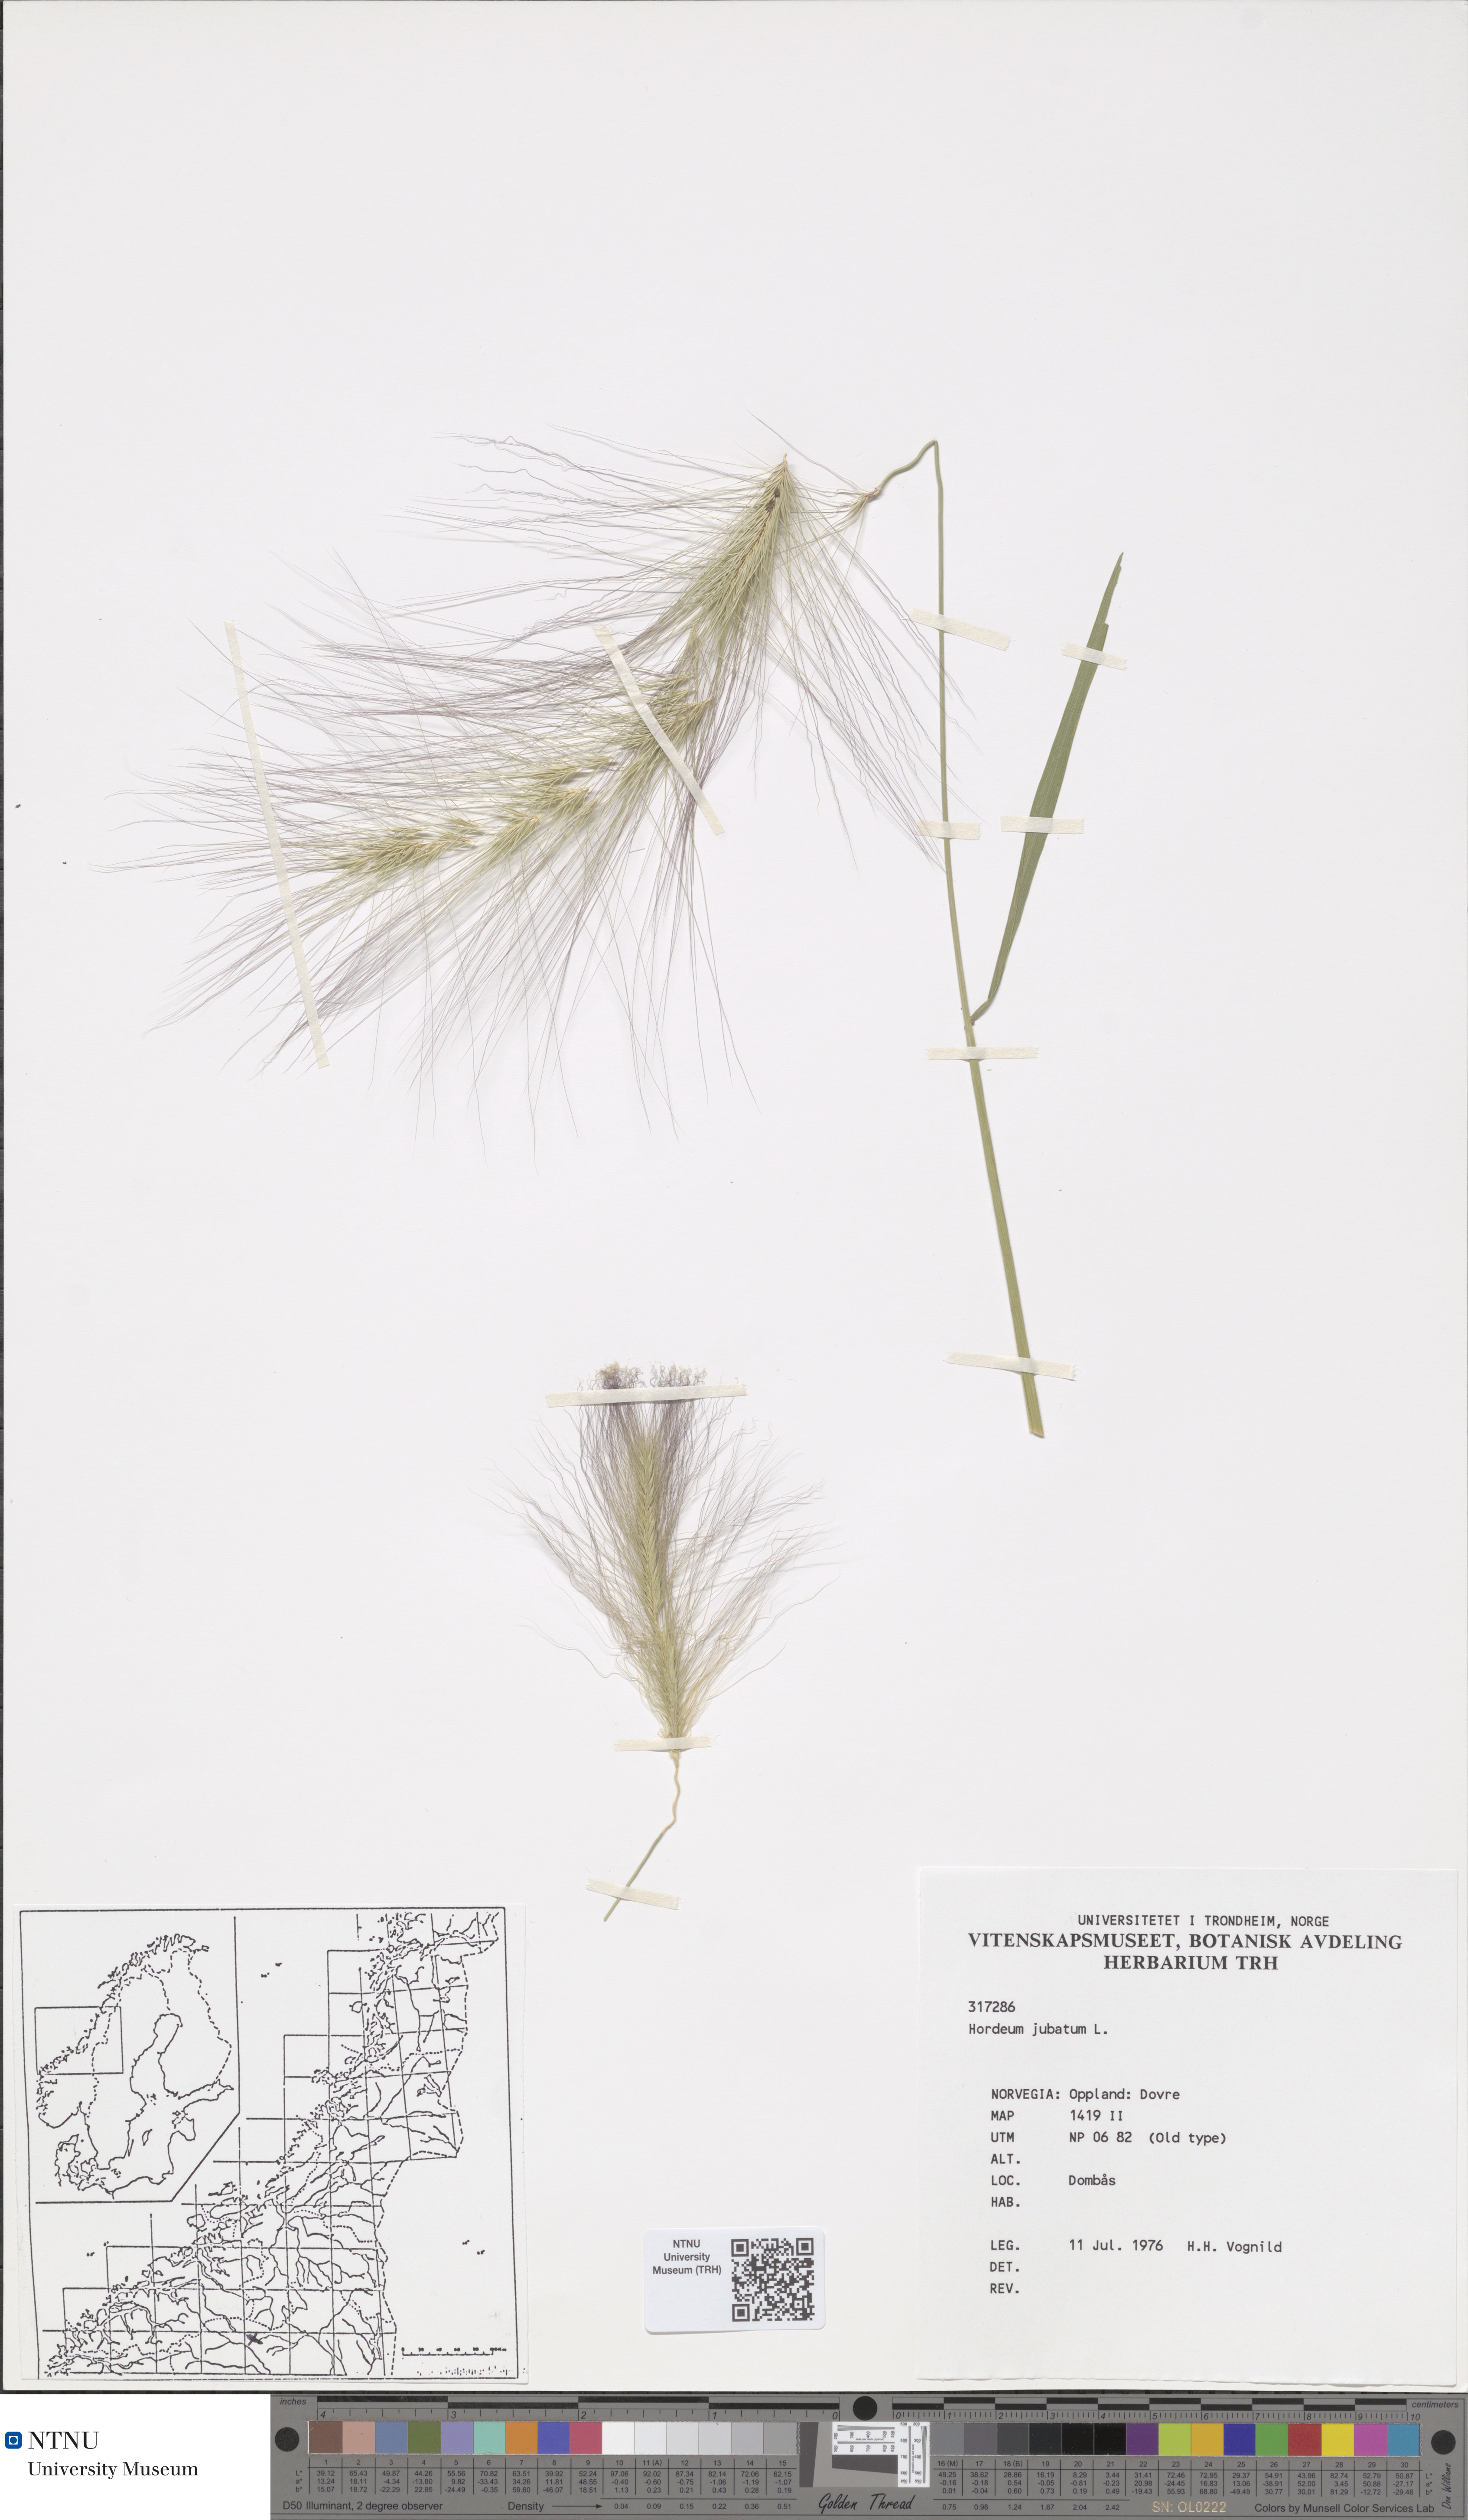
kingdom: Plantae
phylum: Tracheophyta
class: Liliopsida
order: Poales
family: Poaceae
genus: Hordeum
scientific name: Hordeum jubatum
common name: Foxtail barley
